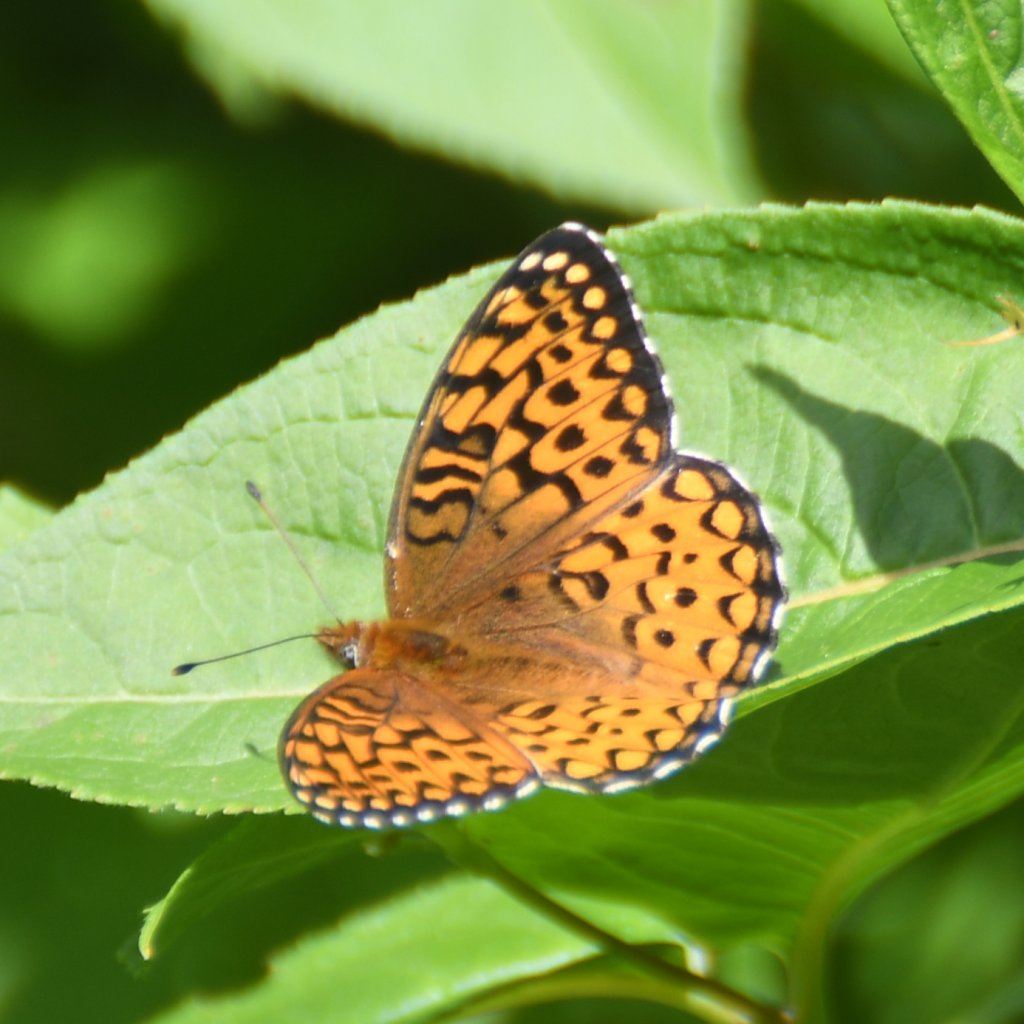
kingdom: Animalia
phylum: Arthropoda
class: Insecta
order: Lepidoptera
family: Nymphalidae
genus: Speyeria
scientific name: Speyeria atlantis
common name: Atlantis Fritillary
